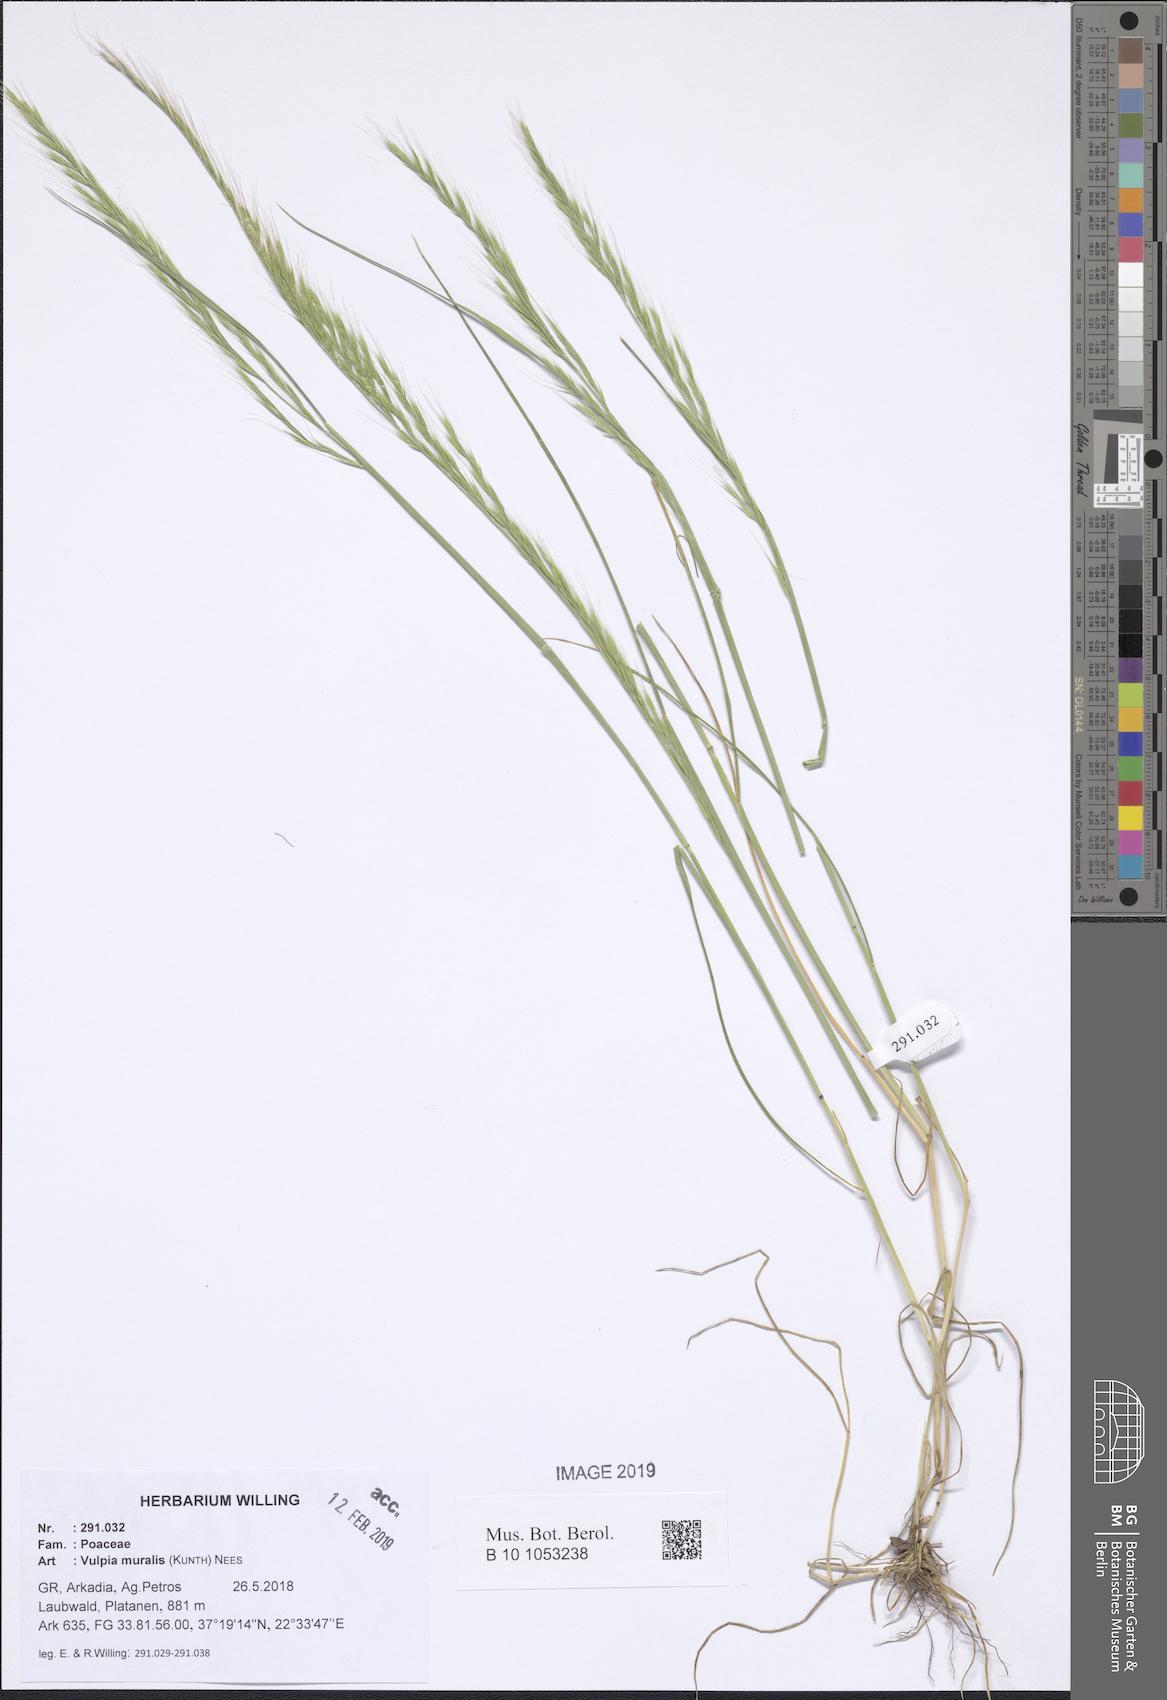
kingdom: Plantae
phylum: Tracheophyta
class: Liliopsida
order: Poales
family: Poaceae
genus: Festuca
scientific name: Festuca muralis
